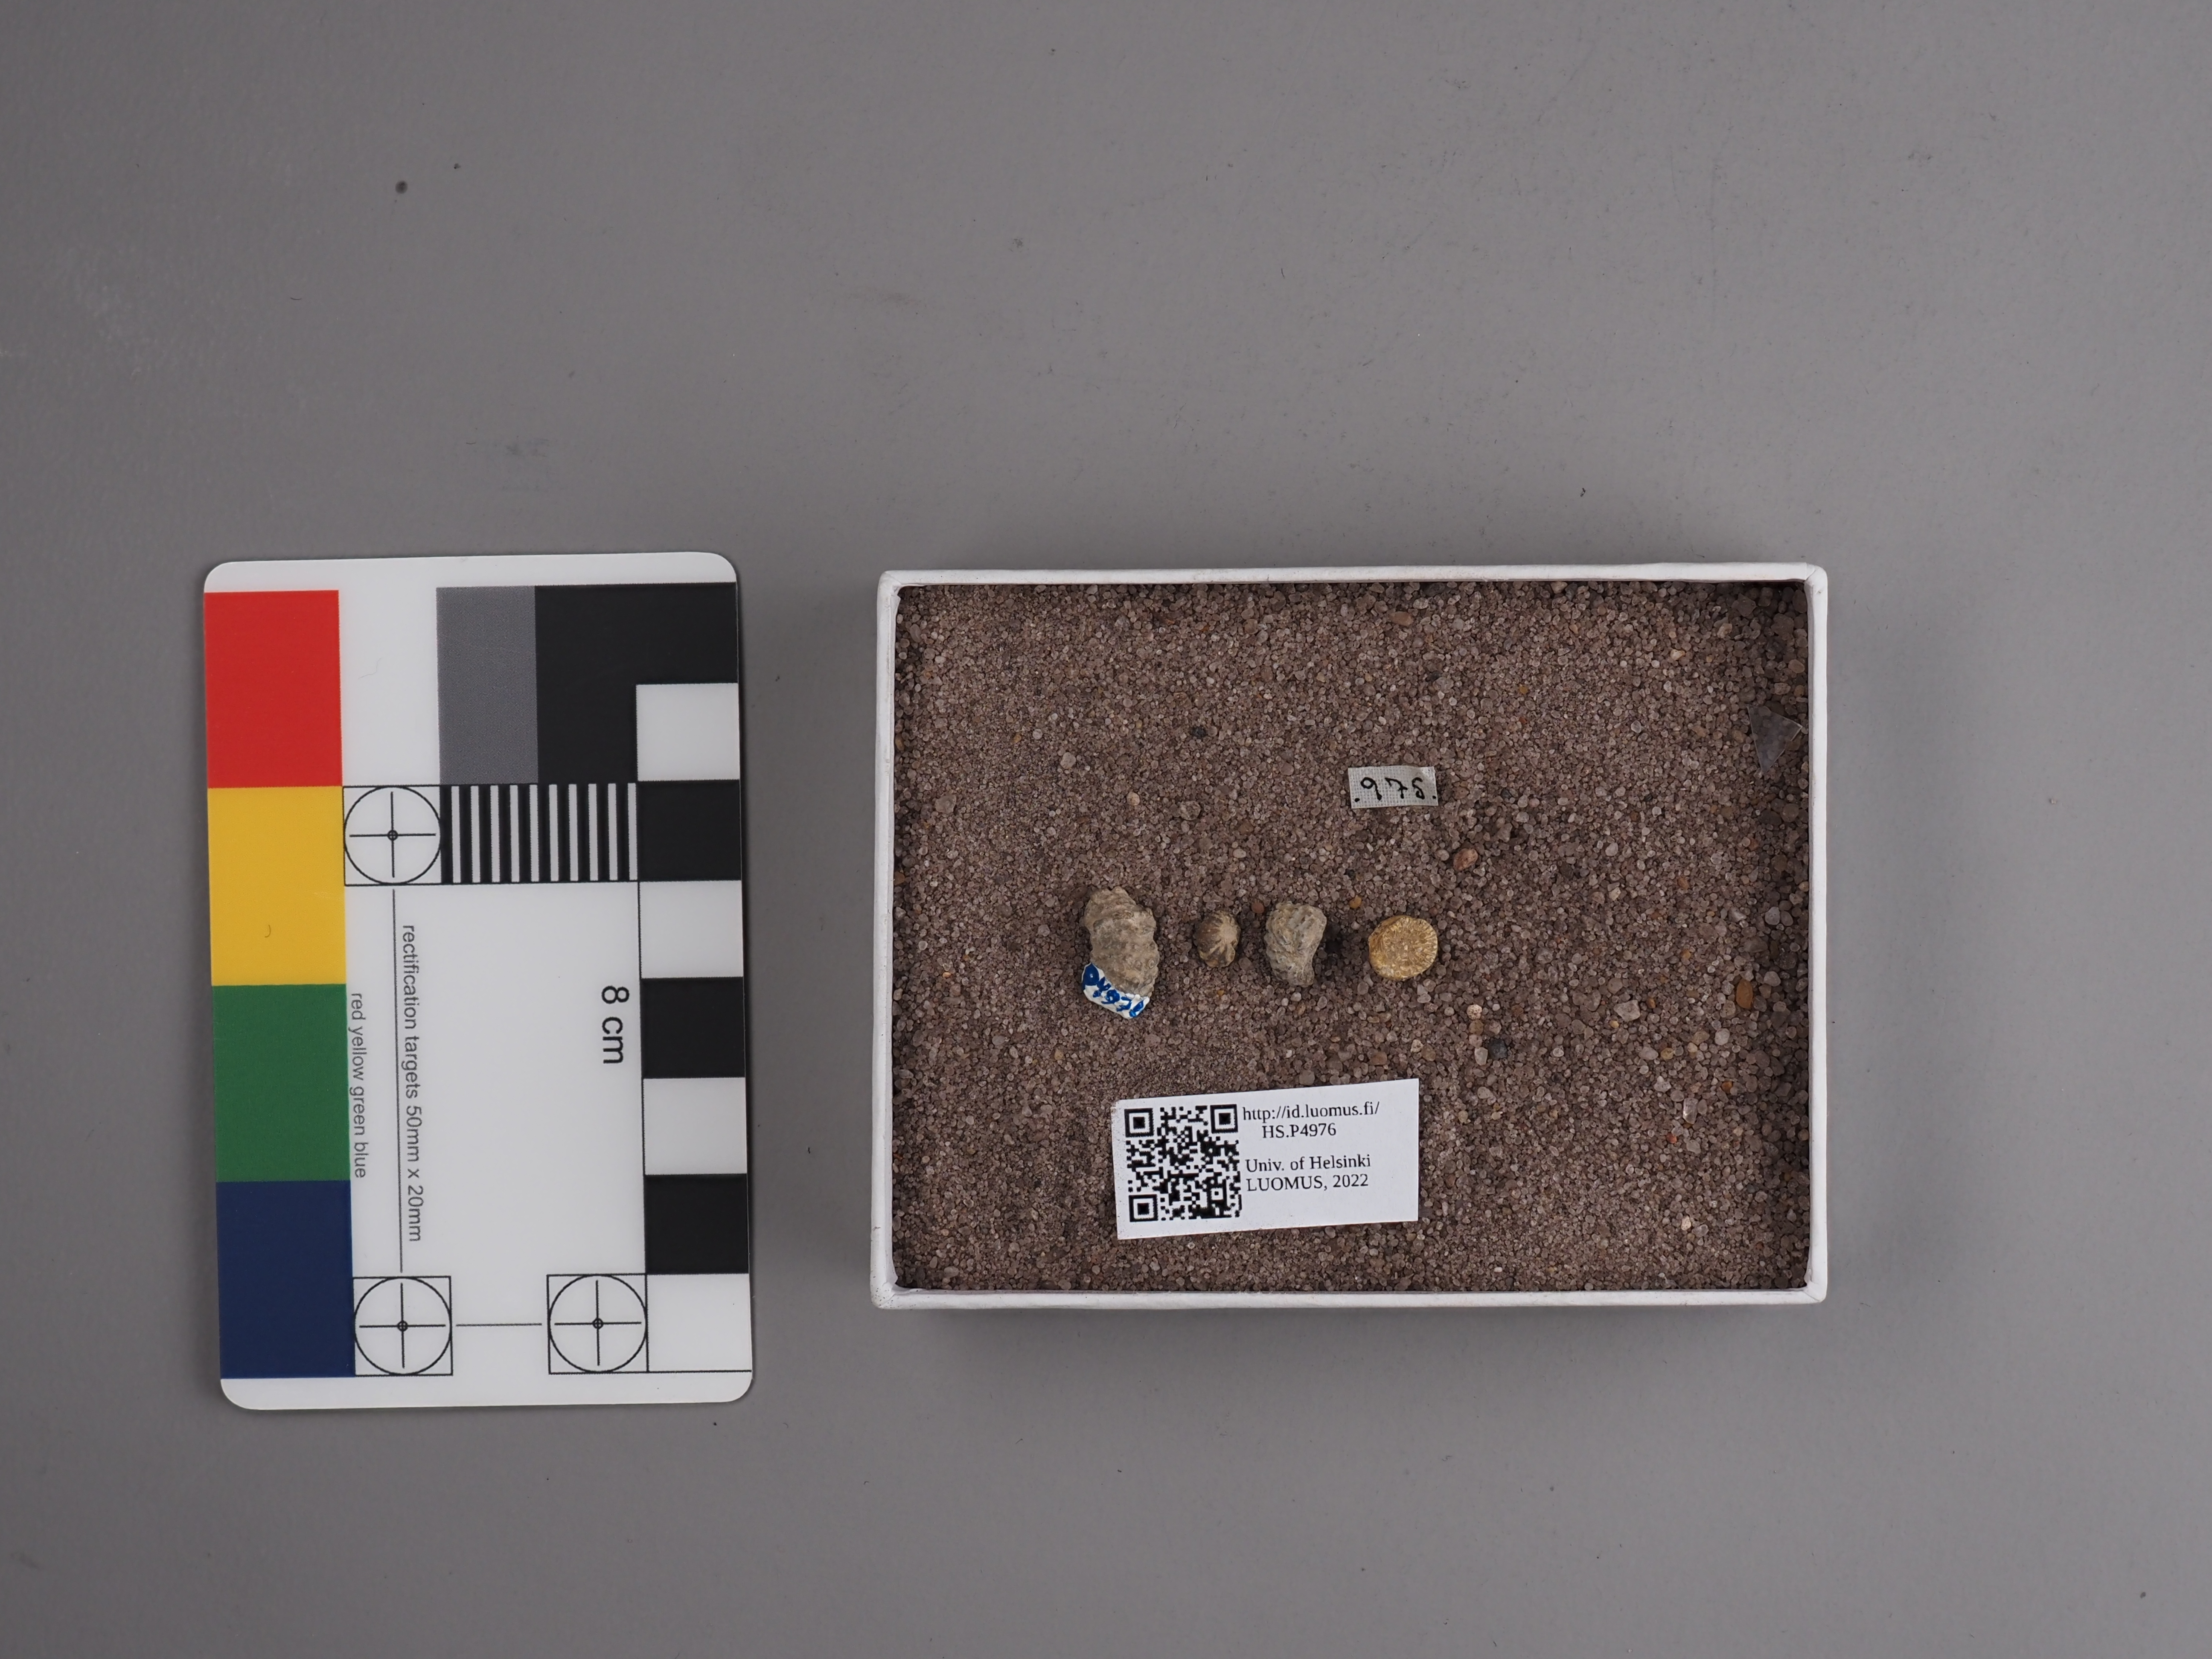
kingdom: Animalia
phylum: Mollusca
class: Cephalopoda
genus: Ammonites
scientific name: Ammonites brotheus
